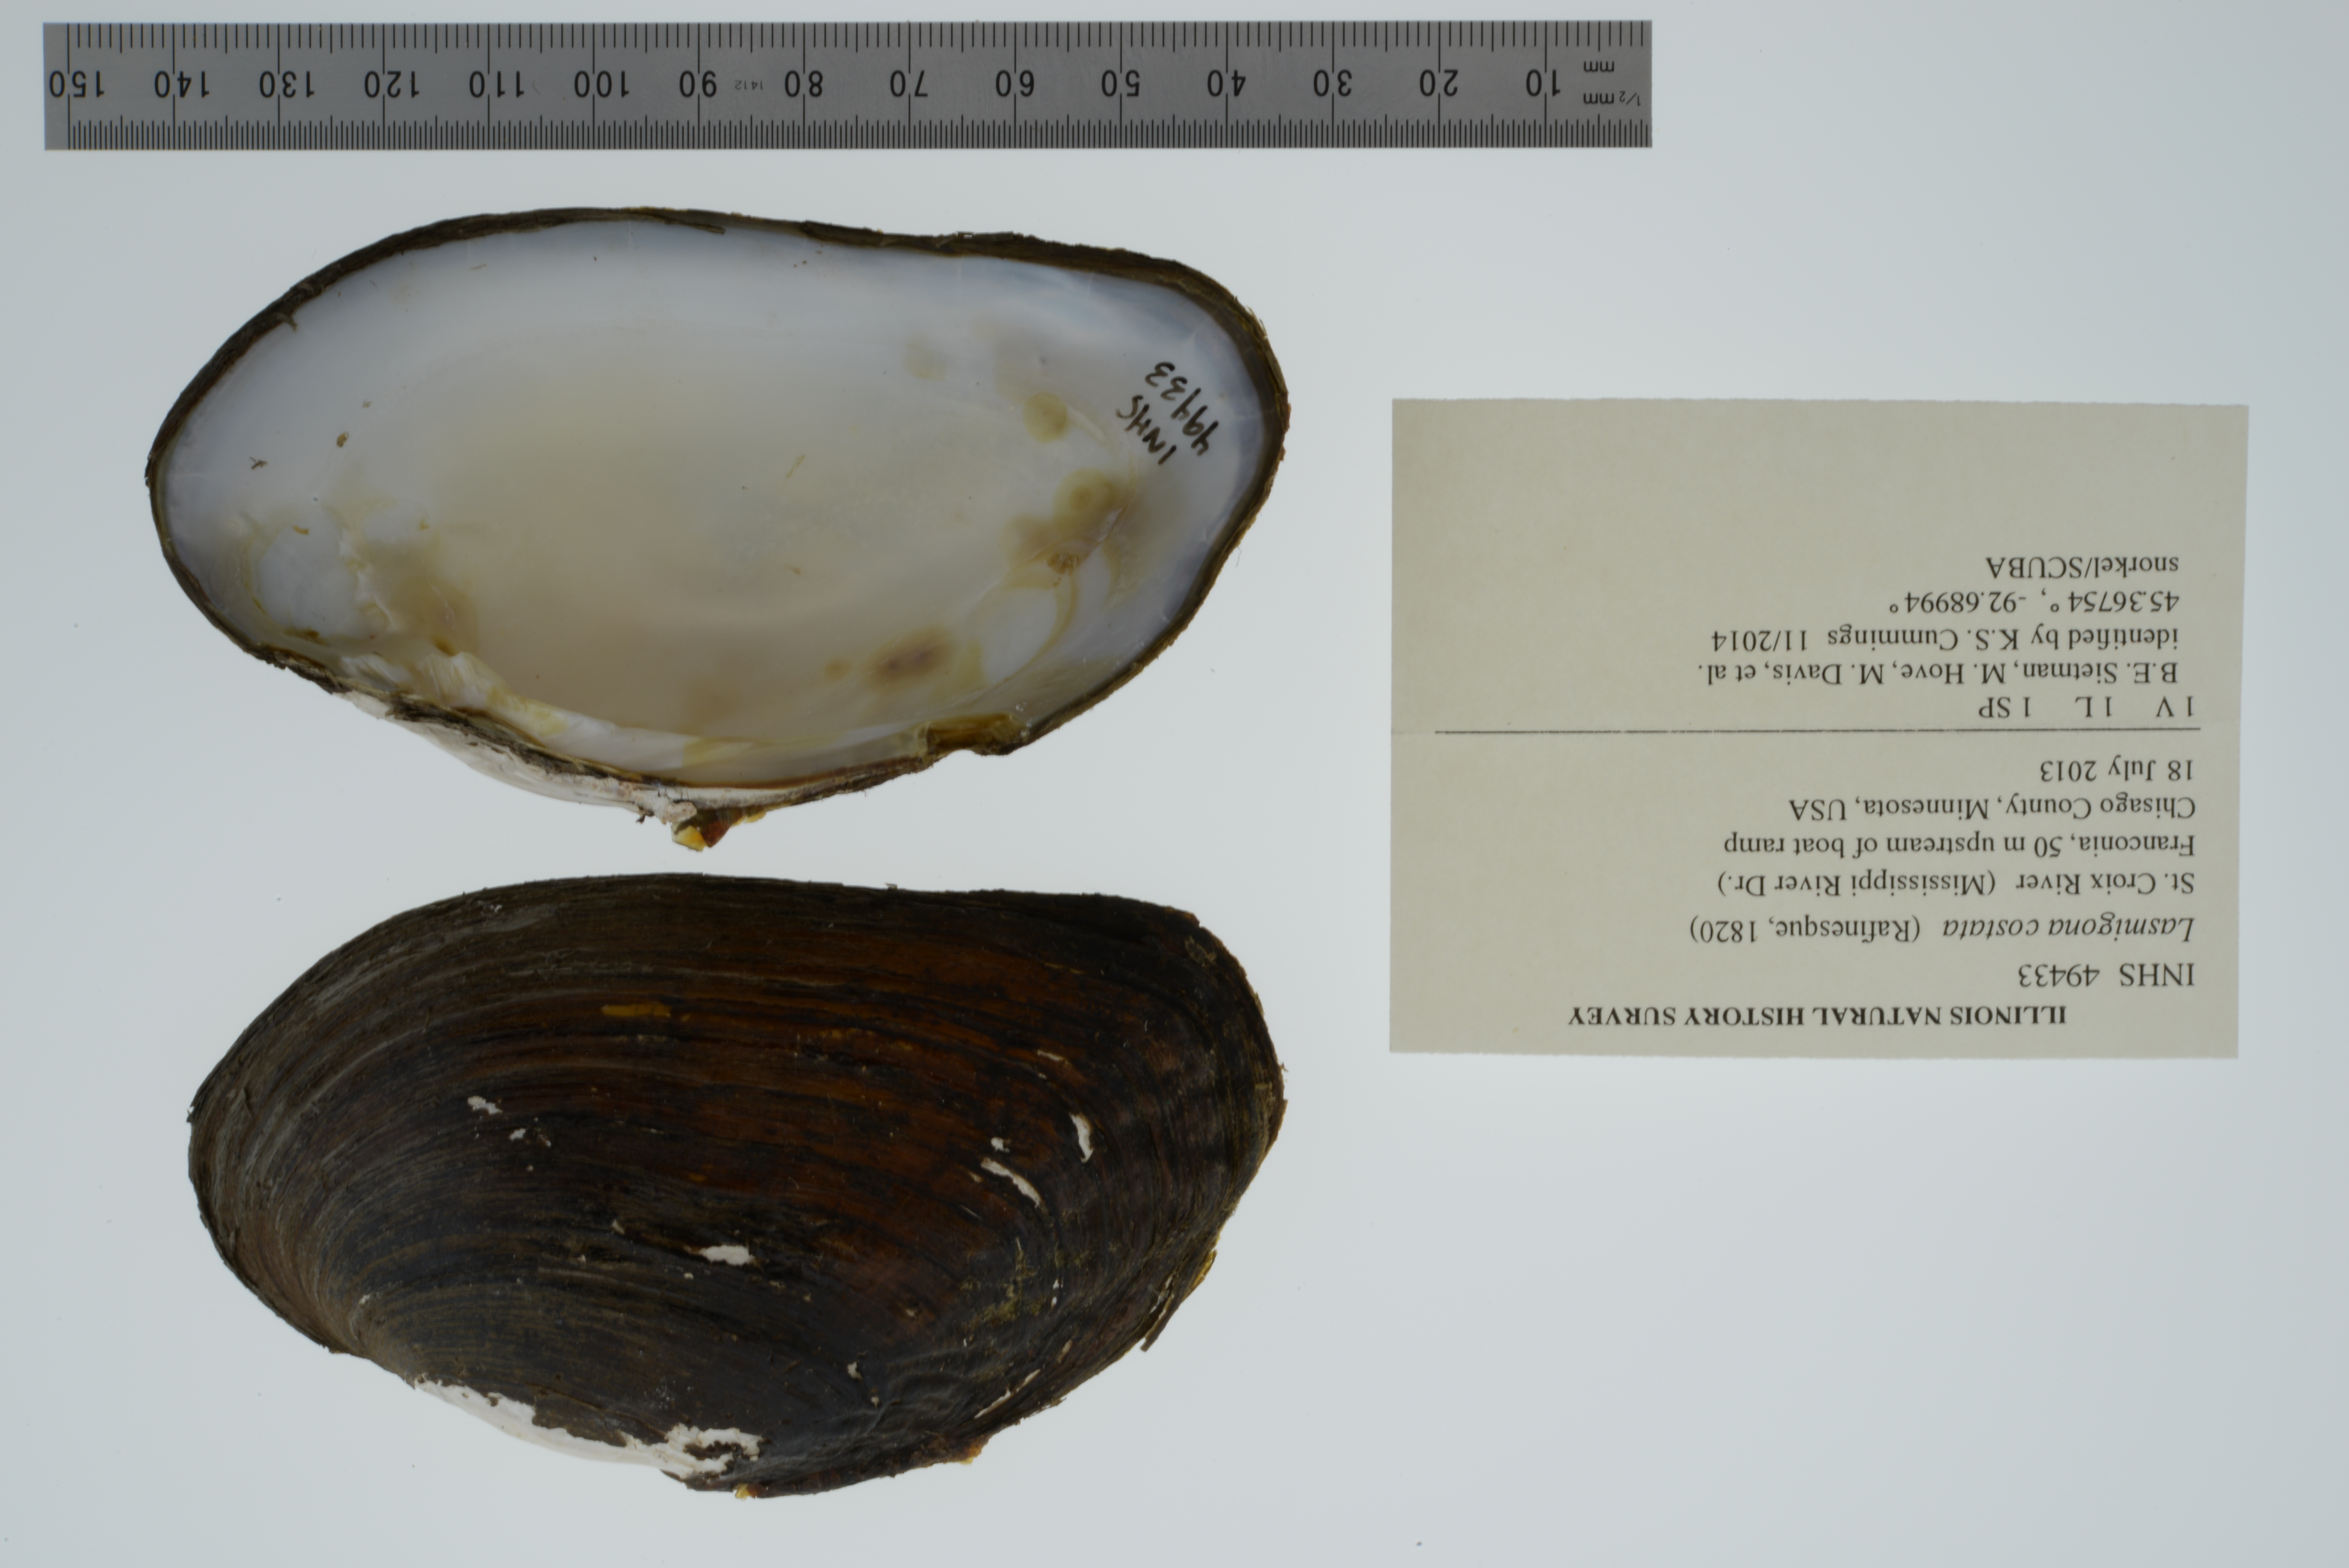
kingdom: Animalia
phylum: Mollusca
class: Bivalvia
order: Unionida
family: Unionidae
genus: Lasmigona
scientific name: Lasmigona costata
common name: Flutedshell
